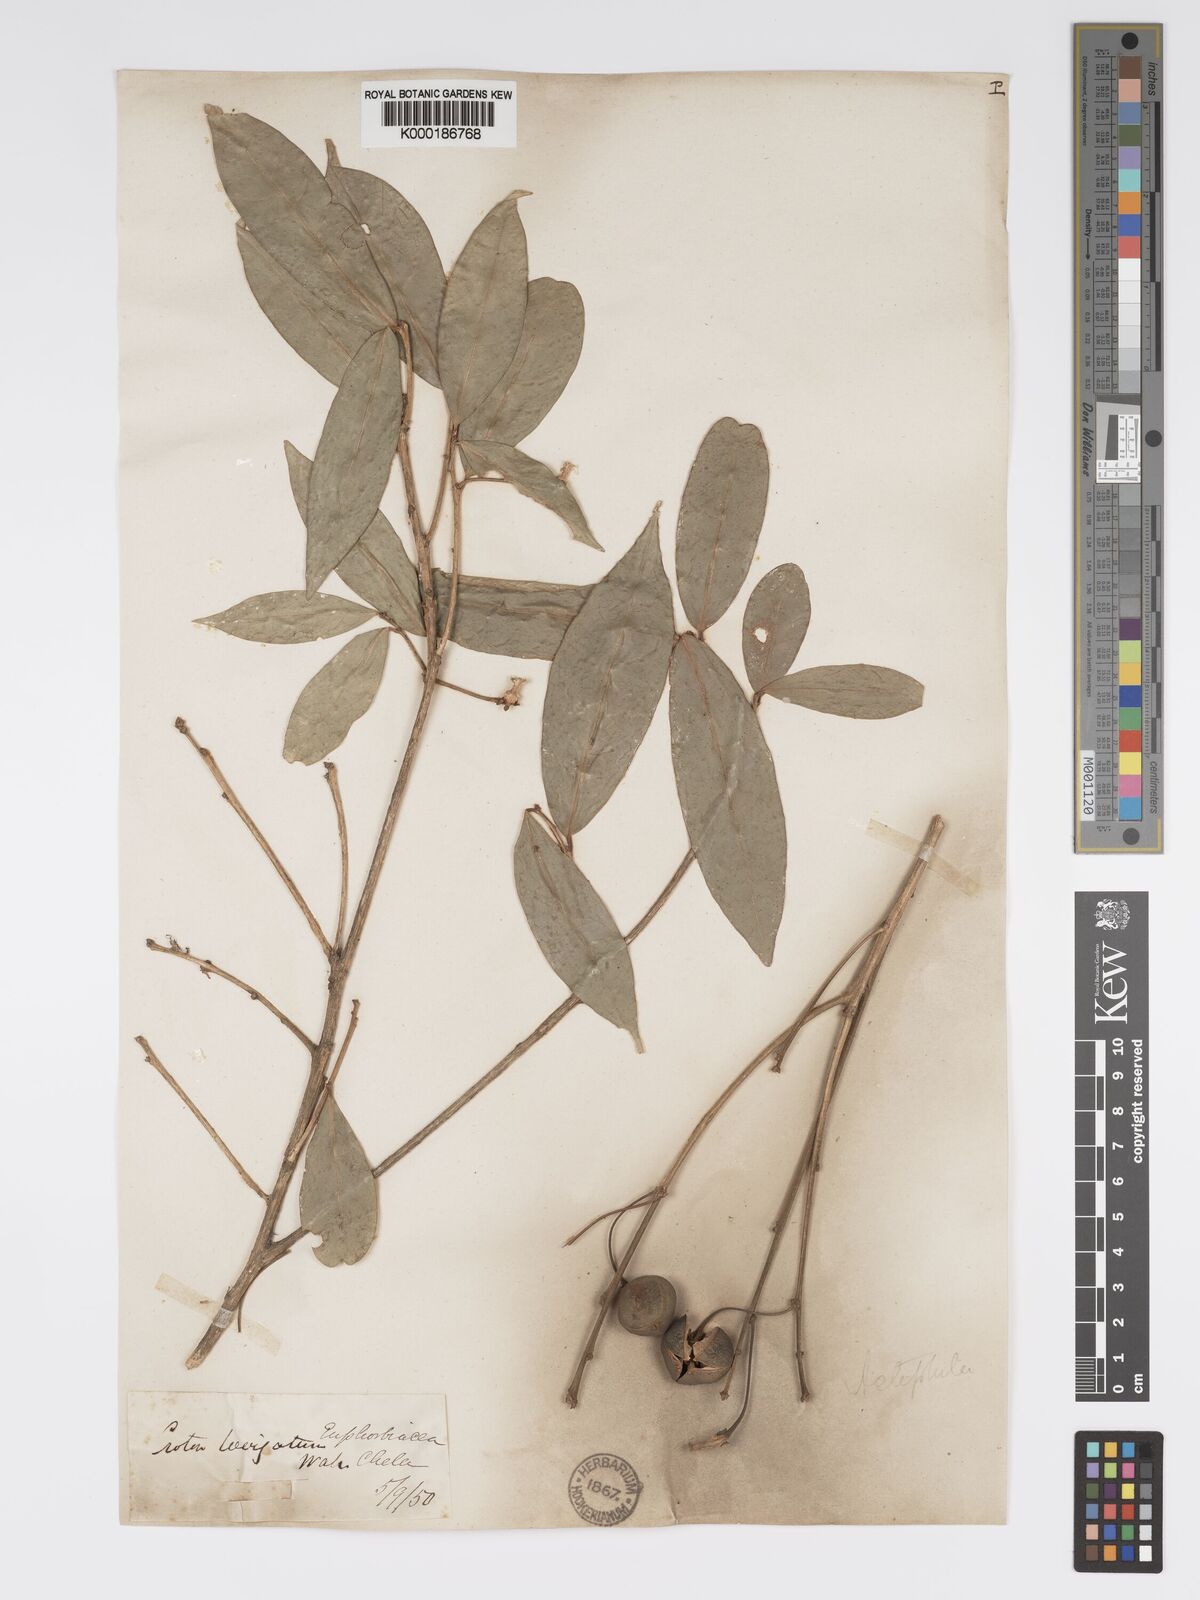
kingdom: Plantae
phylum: Tracheophyta
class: Magnoliopsida
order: Malpighiales
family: Phyllanthaceae
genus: Actephila
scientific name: Actephila excelsa
